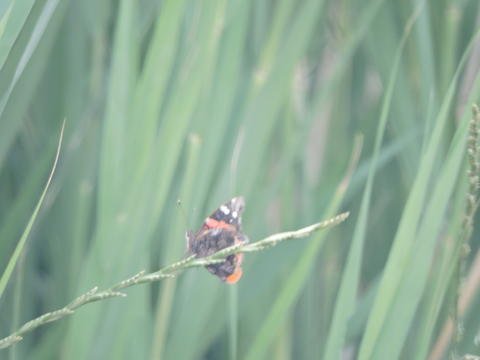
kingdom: Animalia
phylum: Arthropoda
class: Insecta
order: Lepidoptera
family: Nymphalidae
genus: Vanessa
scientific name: Vanessa atalanta
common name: Red Admiral
